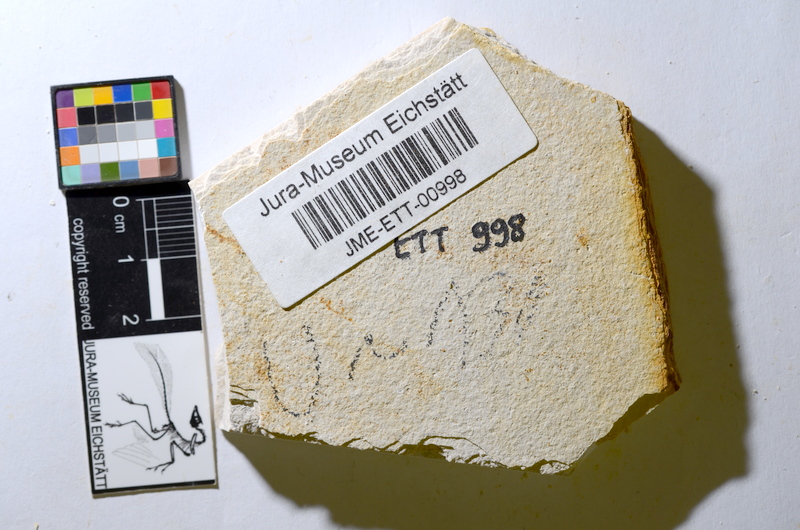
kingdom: Animalia
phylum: Chordata
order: Salmoniformes
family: Orthogonikleithridae
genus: Orthogonikleithrus
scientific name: Orthogonikleithrus hoelli
